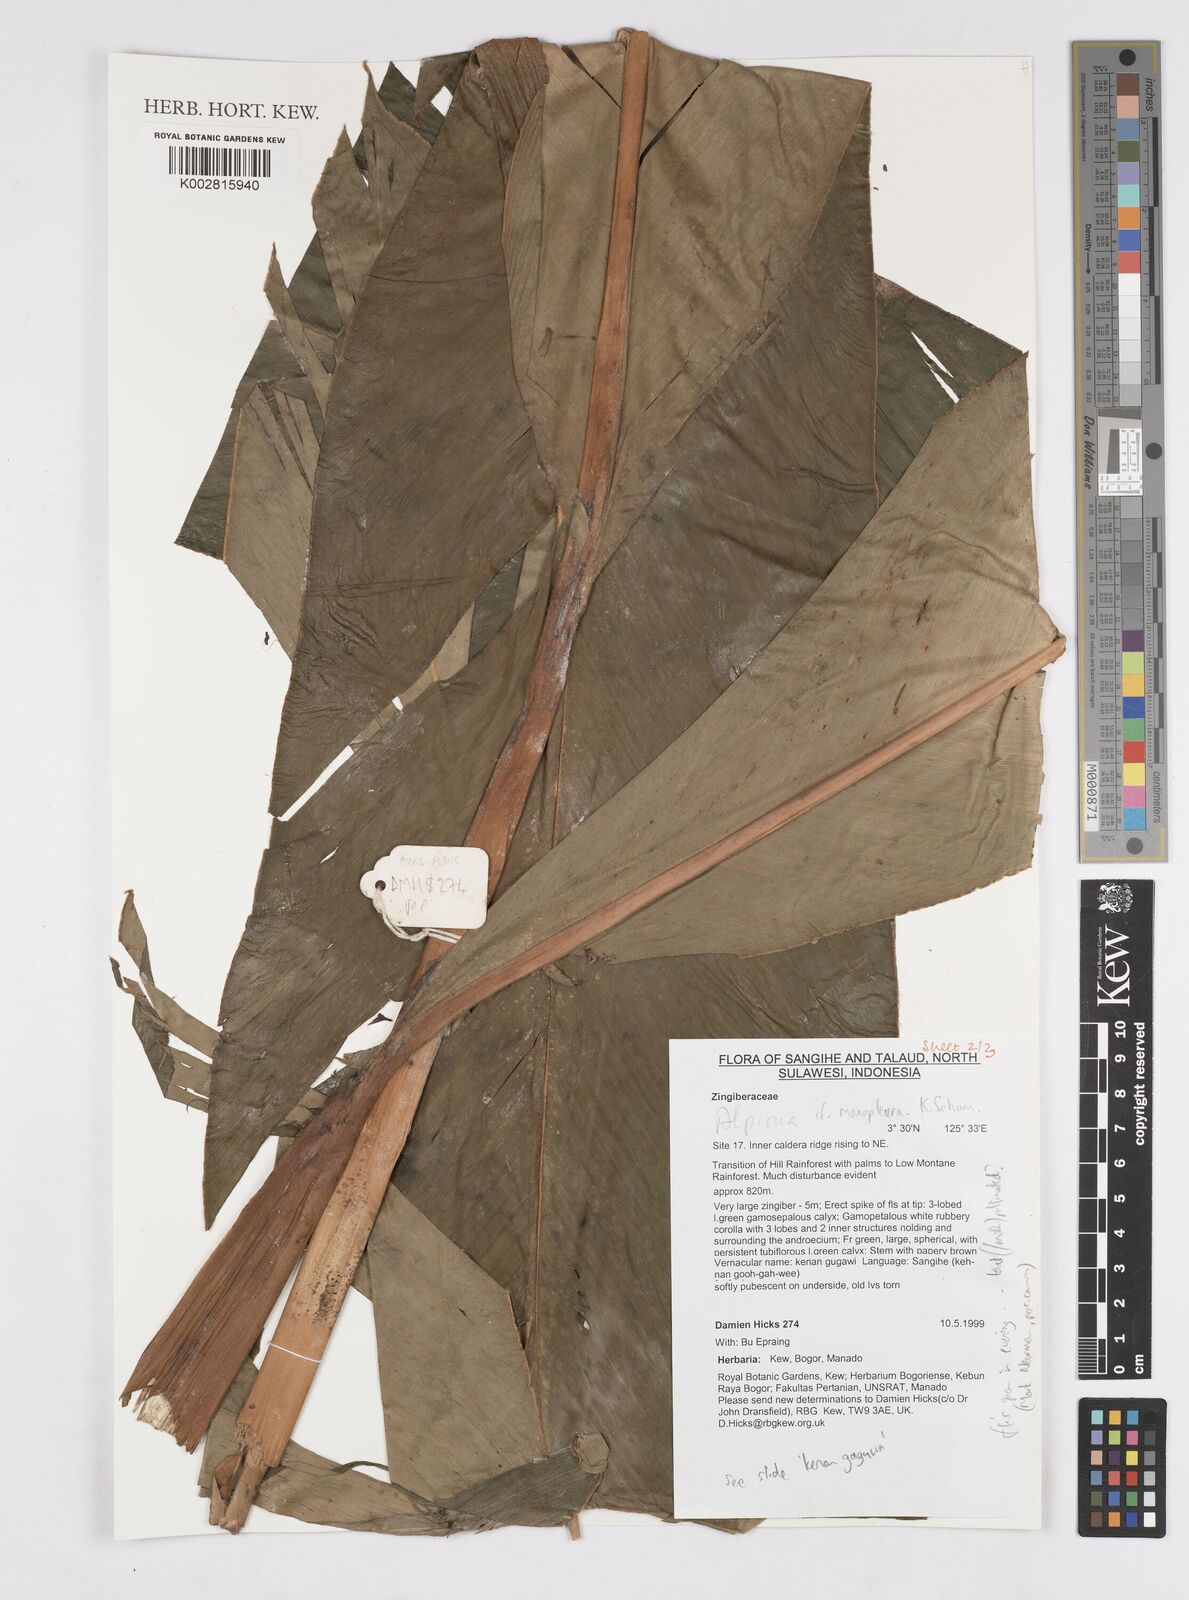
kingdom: Plantae
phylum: Tracheophyta
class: Liliopsida
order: Zingiberales
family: Zingiberaceae
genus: Alpinia
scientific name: Alpinia monopleura
